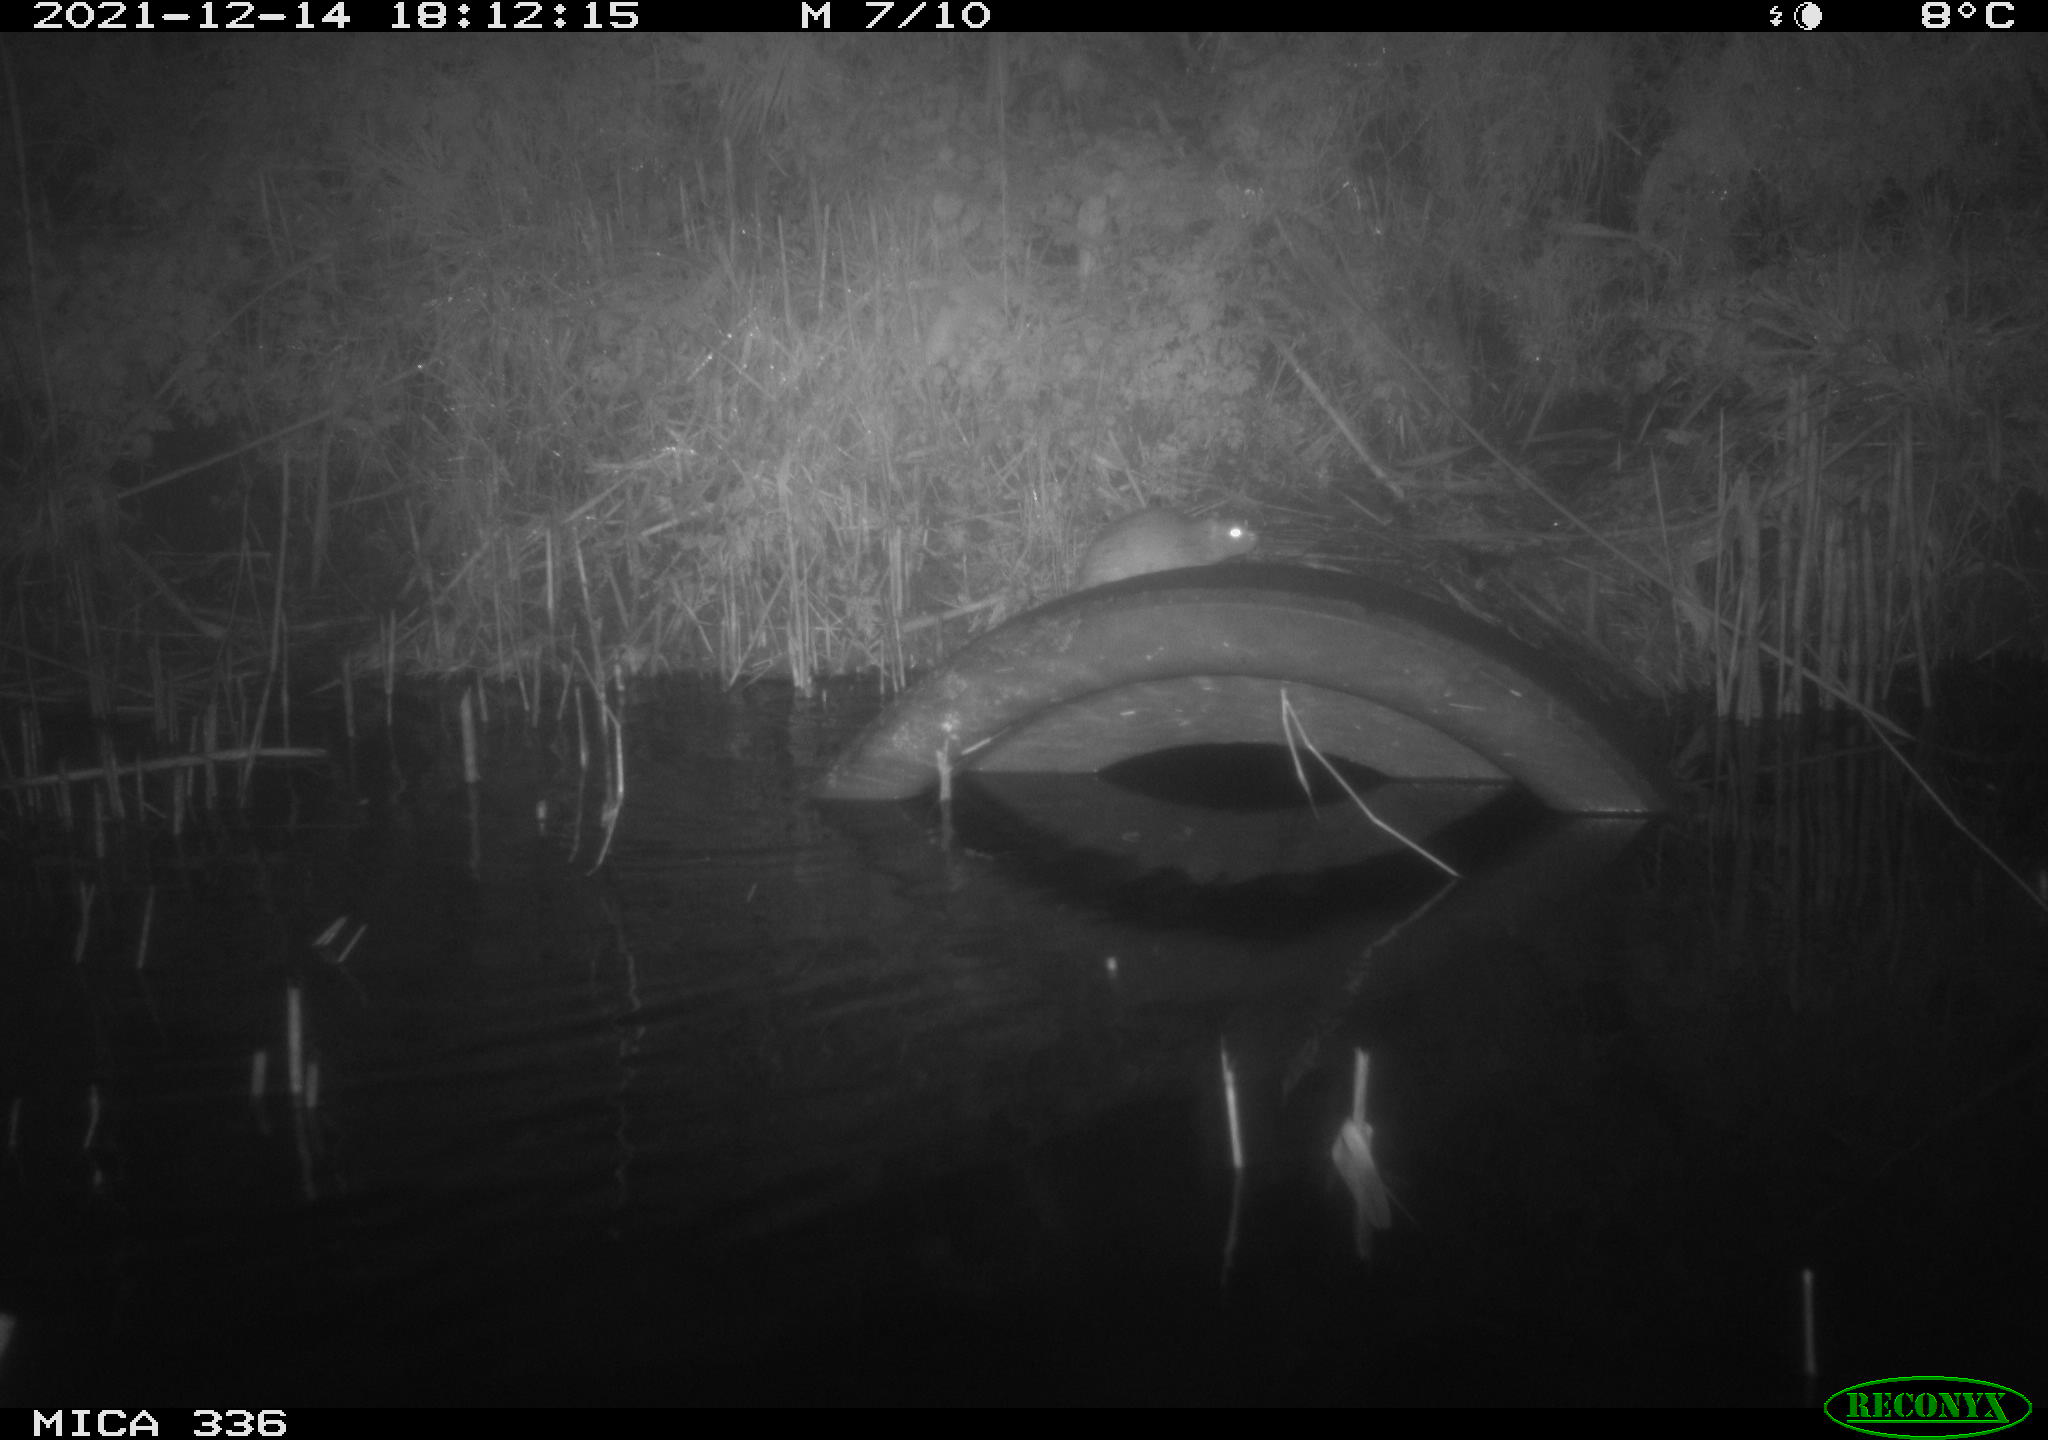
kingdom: Animalia
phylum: Chordata
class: Mammalia
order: Rodentia
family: Muridae
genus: Rattus
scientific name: Rattus norvegicus
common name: Brown rat
